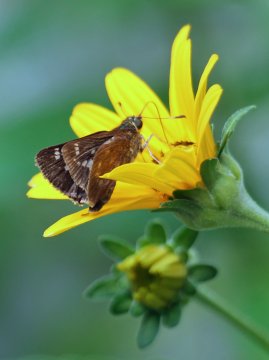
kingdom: Animalia
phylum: Arthropoda
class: Insecta
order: Lepidoptera
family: Hesperiidae
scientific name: Hesperiidae
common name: Skippers
